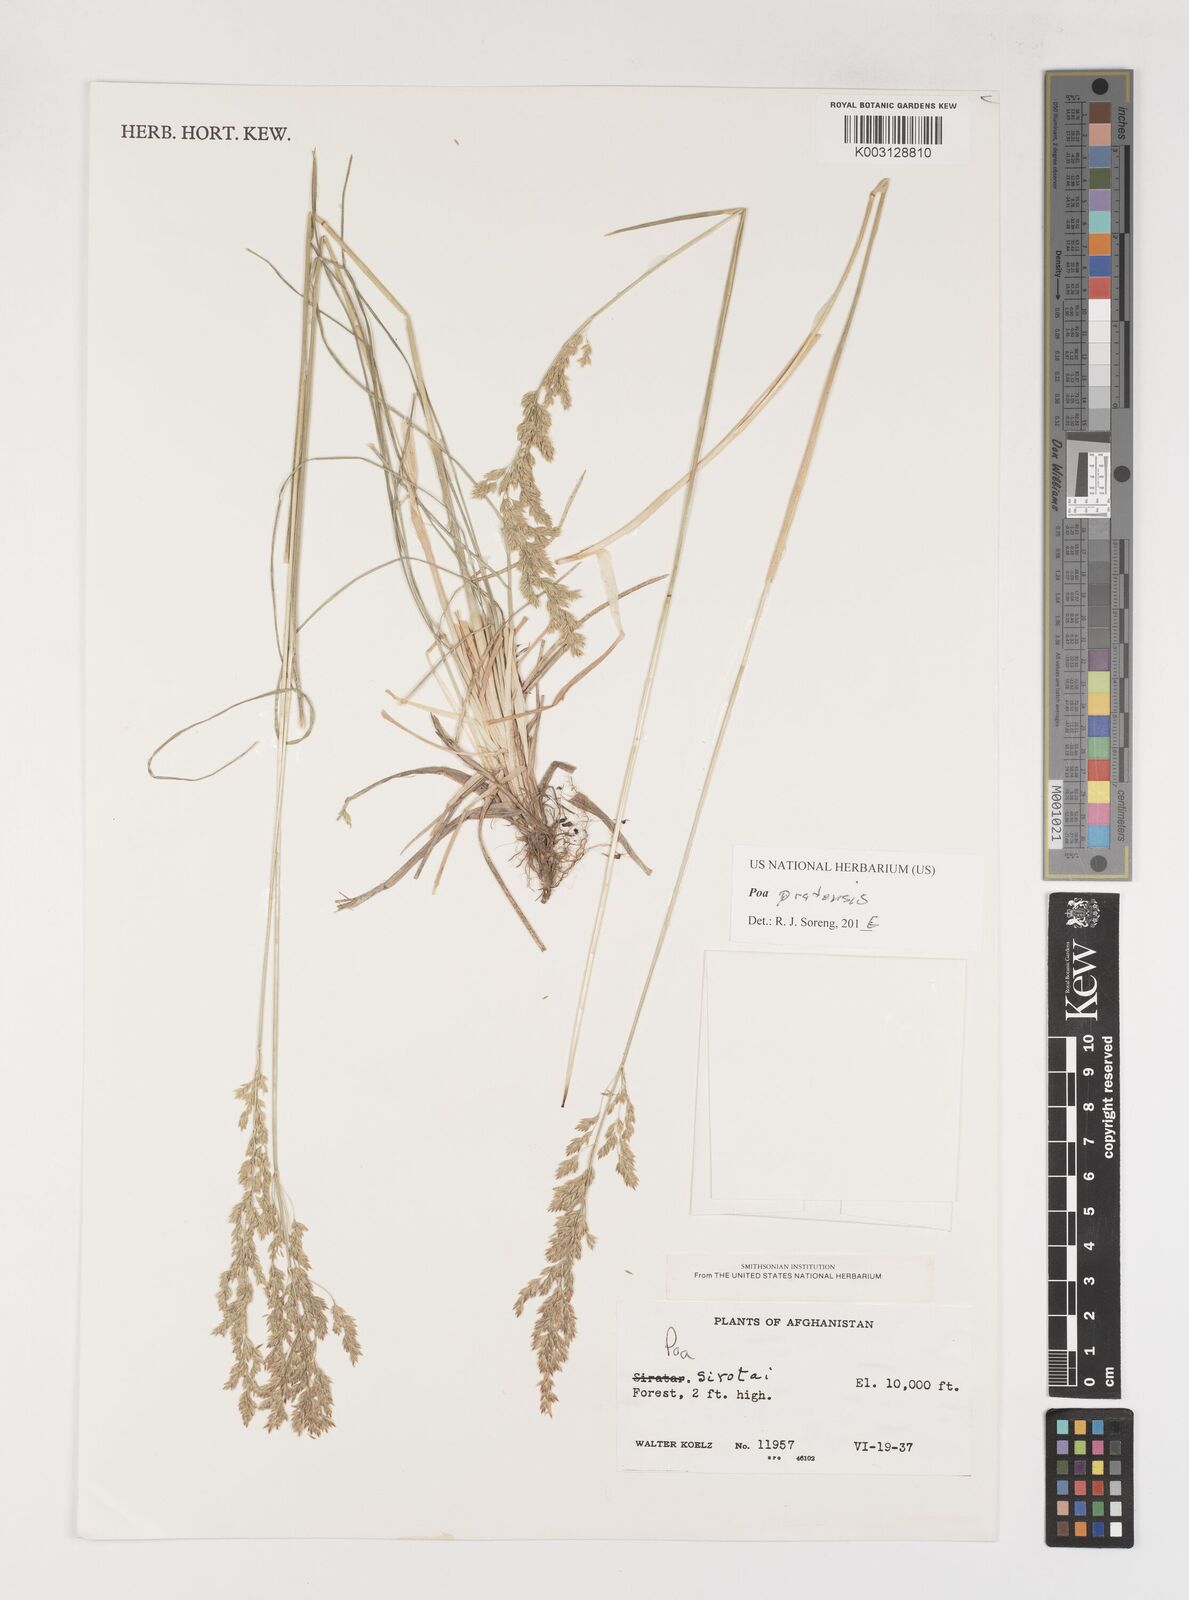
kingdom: Plantae
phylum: Tracheophyta
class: Liliopsida
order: Poales
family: Poaceae
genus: Poa
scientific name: Poa pratensis
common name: Kentucky bluegrass
